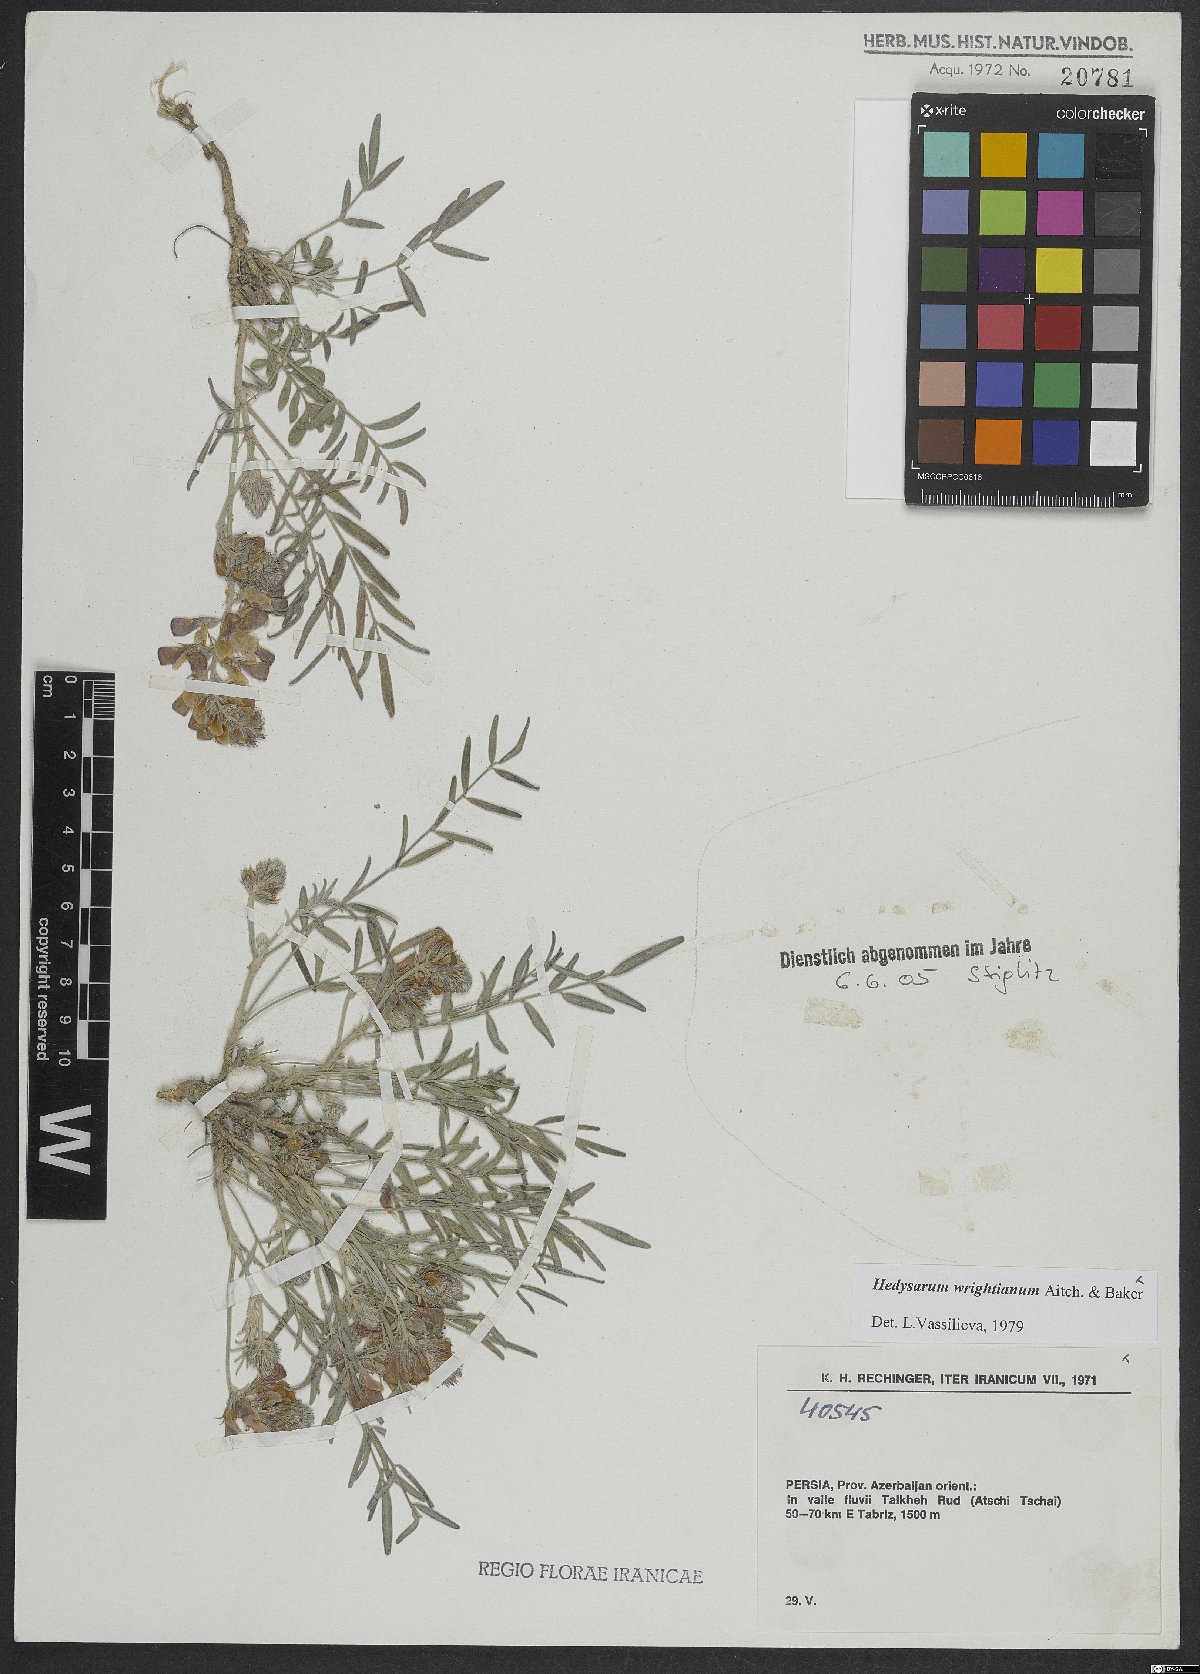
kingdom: Plantae
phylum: Tracheophyta
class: Magnoliopsida
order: Fabales
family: Fabaceae
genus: Hedysarum
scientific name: Hedysarum micropterum
